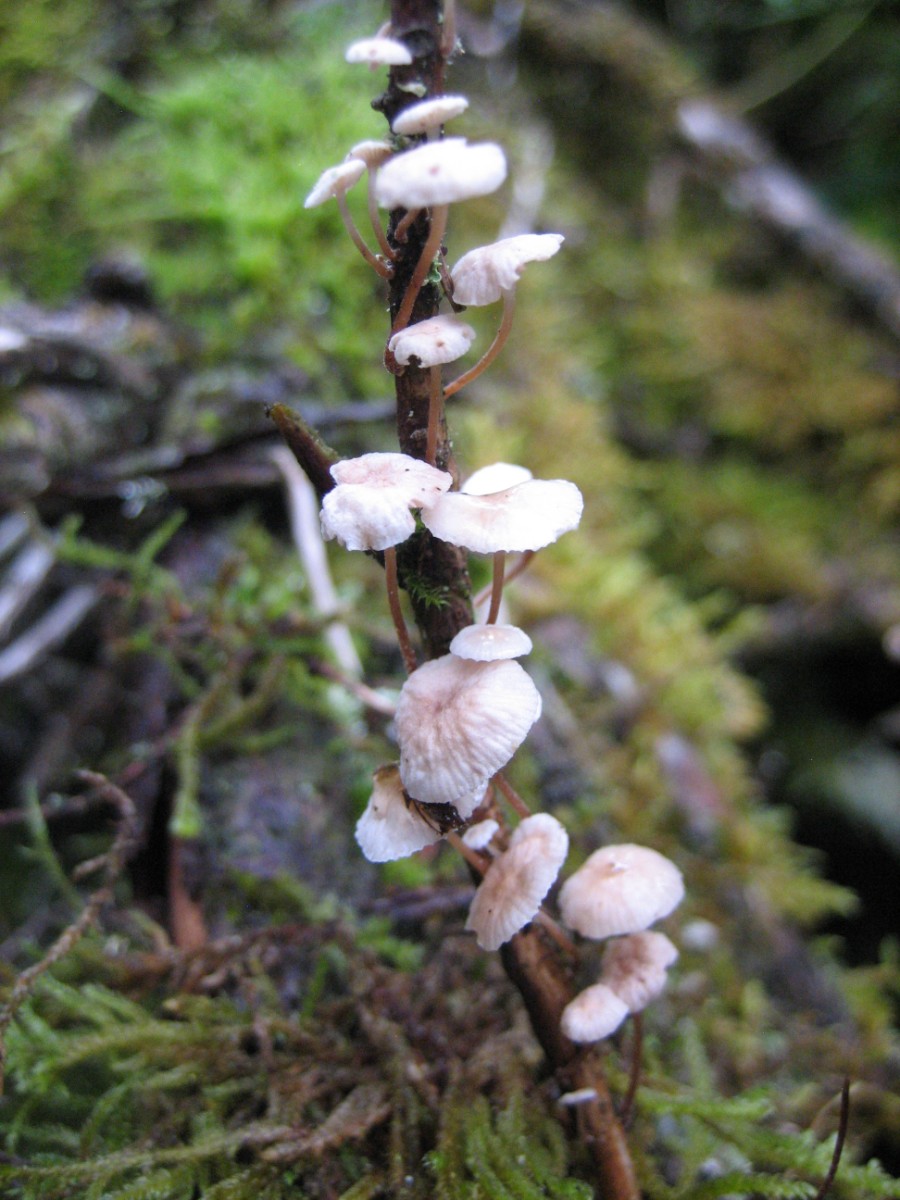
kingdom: Fungi
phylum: Basidiomycota
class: Agaricomycetes
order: Agaricales
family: Omphalotaceae
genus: Collybiopsis
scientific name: Collybiopsis ramealis
